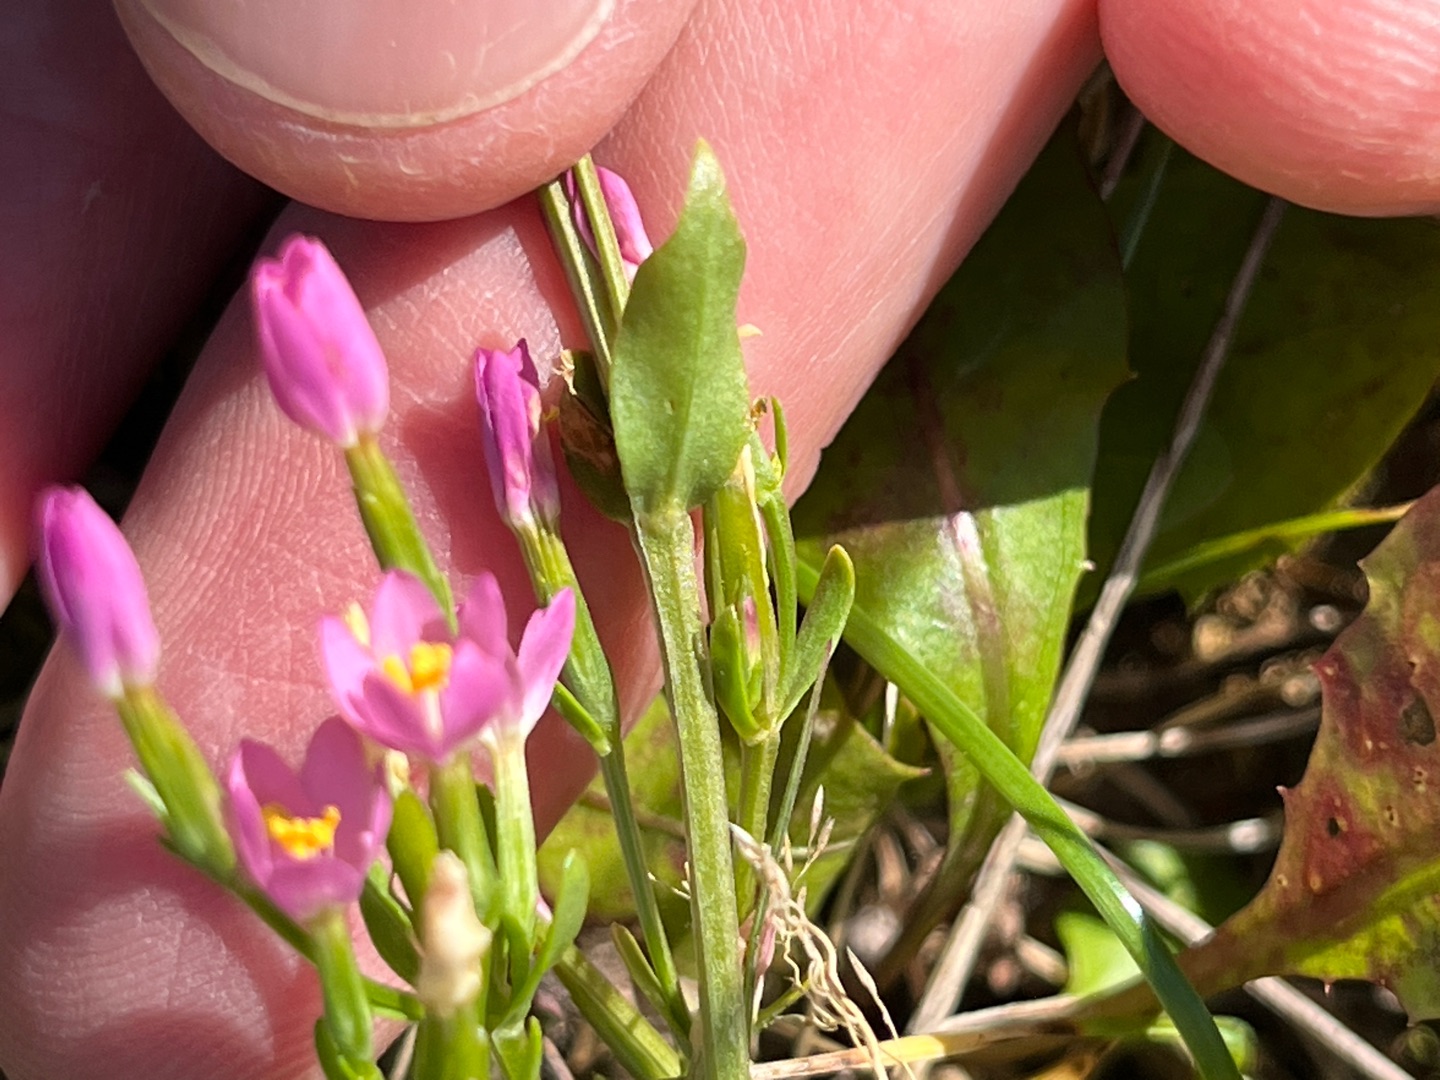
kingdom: Plantae
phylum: Tracheophyta
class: Magnoliopsida
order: Gentianales
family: Gentianaceae
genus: Centaurium
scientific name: Centaurium erythraea
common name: Mark-tusindgylden
